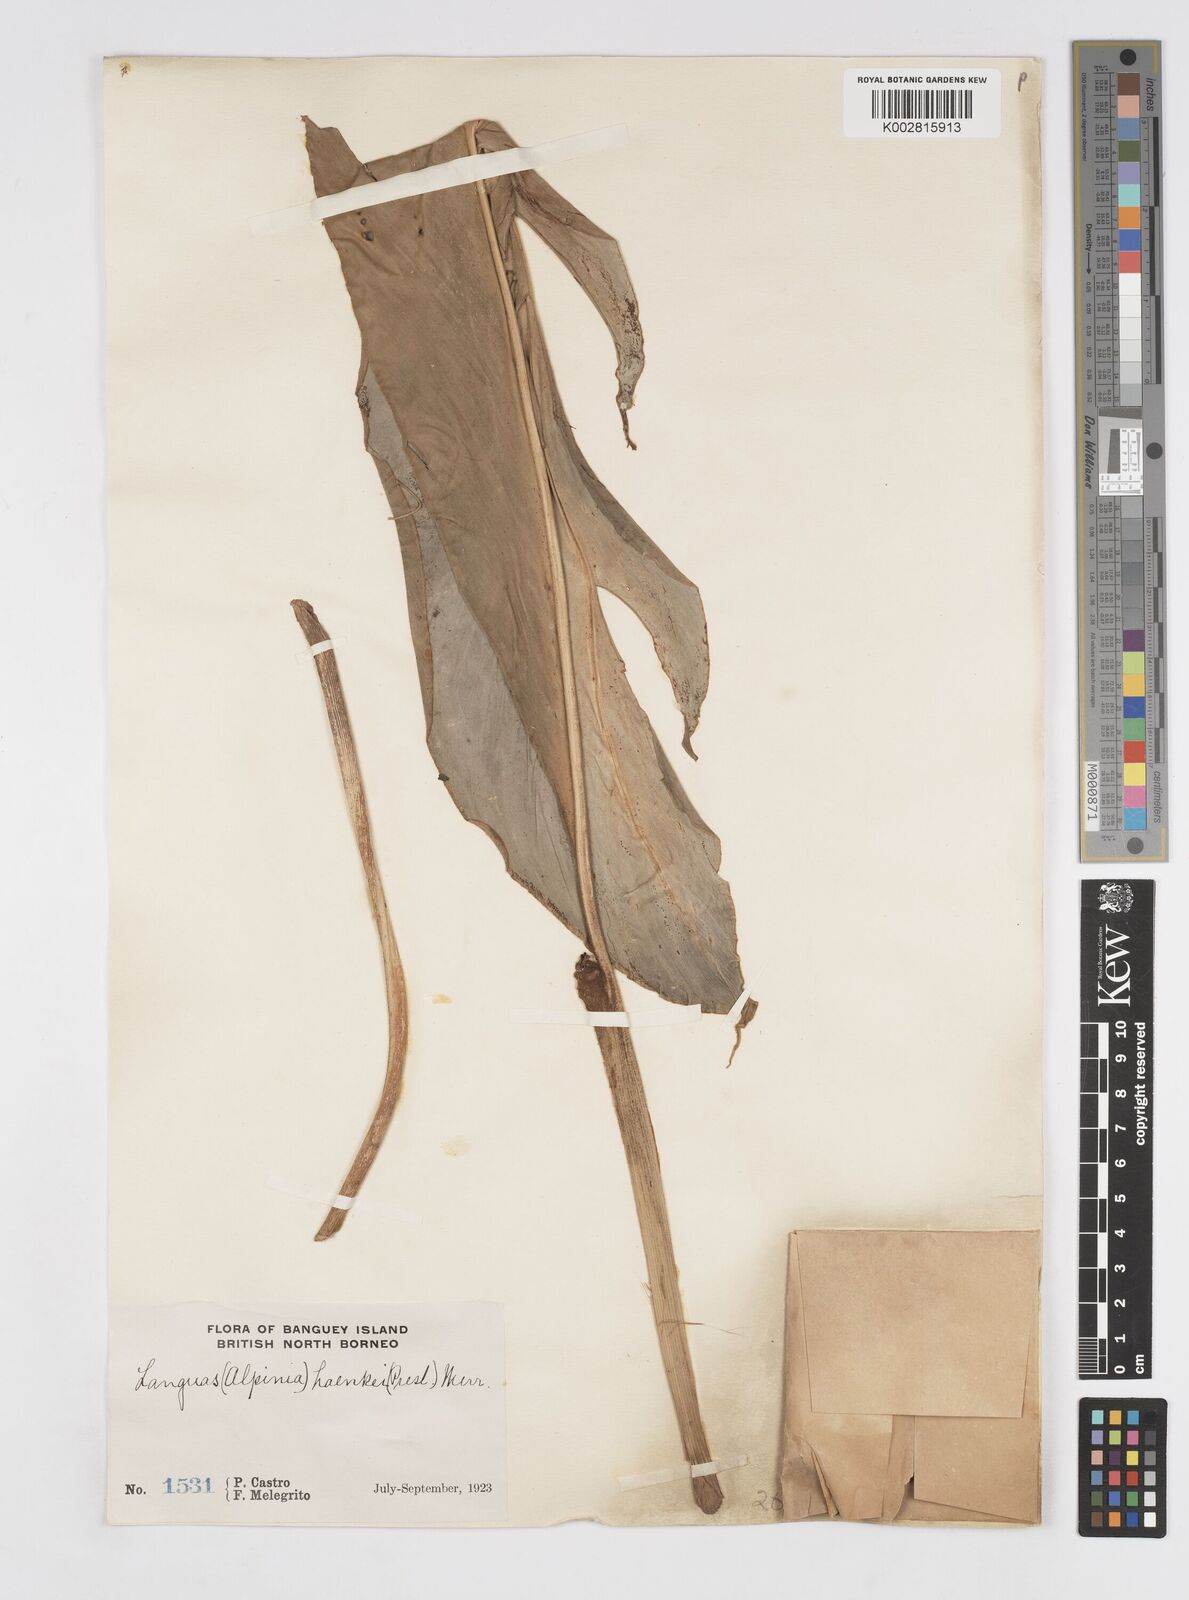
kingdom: Plantae
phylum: Tracheophyta
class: Liliopsida
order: Zingiberales
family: Zingiberaceae
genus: Alpinia
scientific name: Alpinia haenkei
